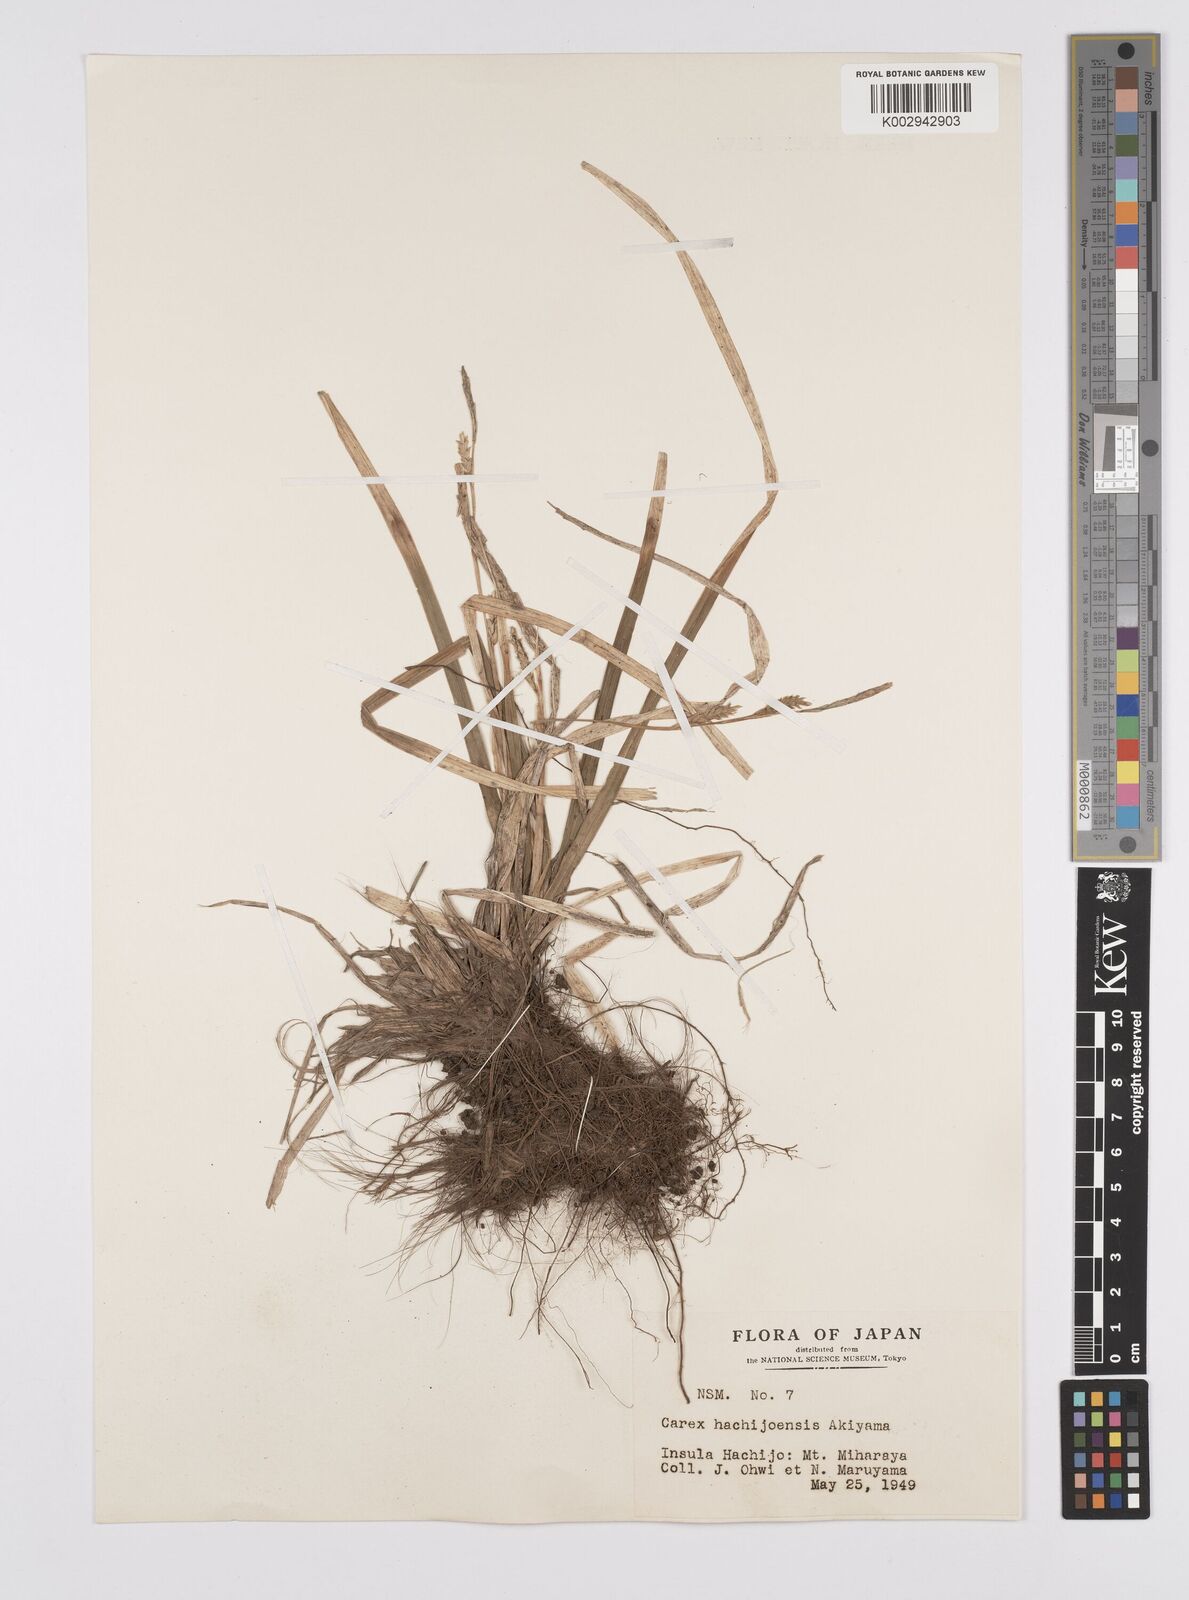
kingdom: Plantae
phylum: Tracheophyta
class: Liliopsida
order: Poales
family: Cyperaceae
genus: Carex
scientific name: Carex hachijoensis
